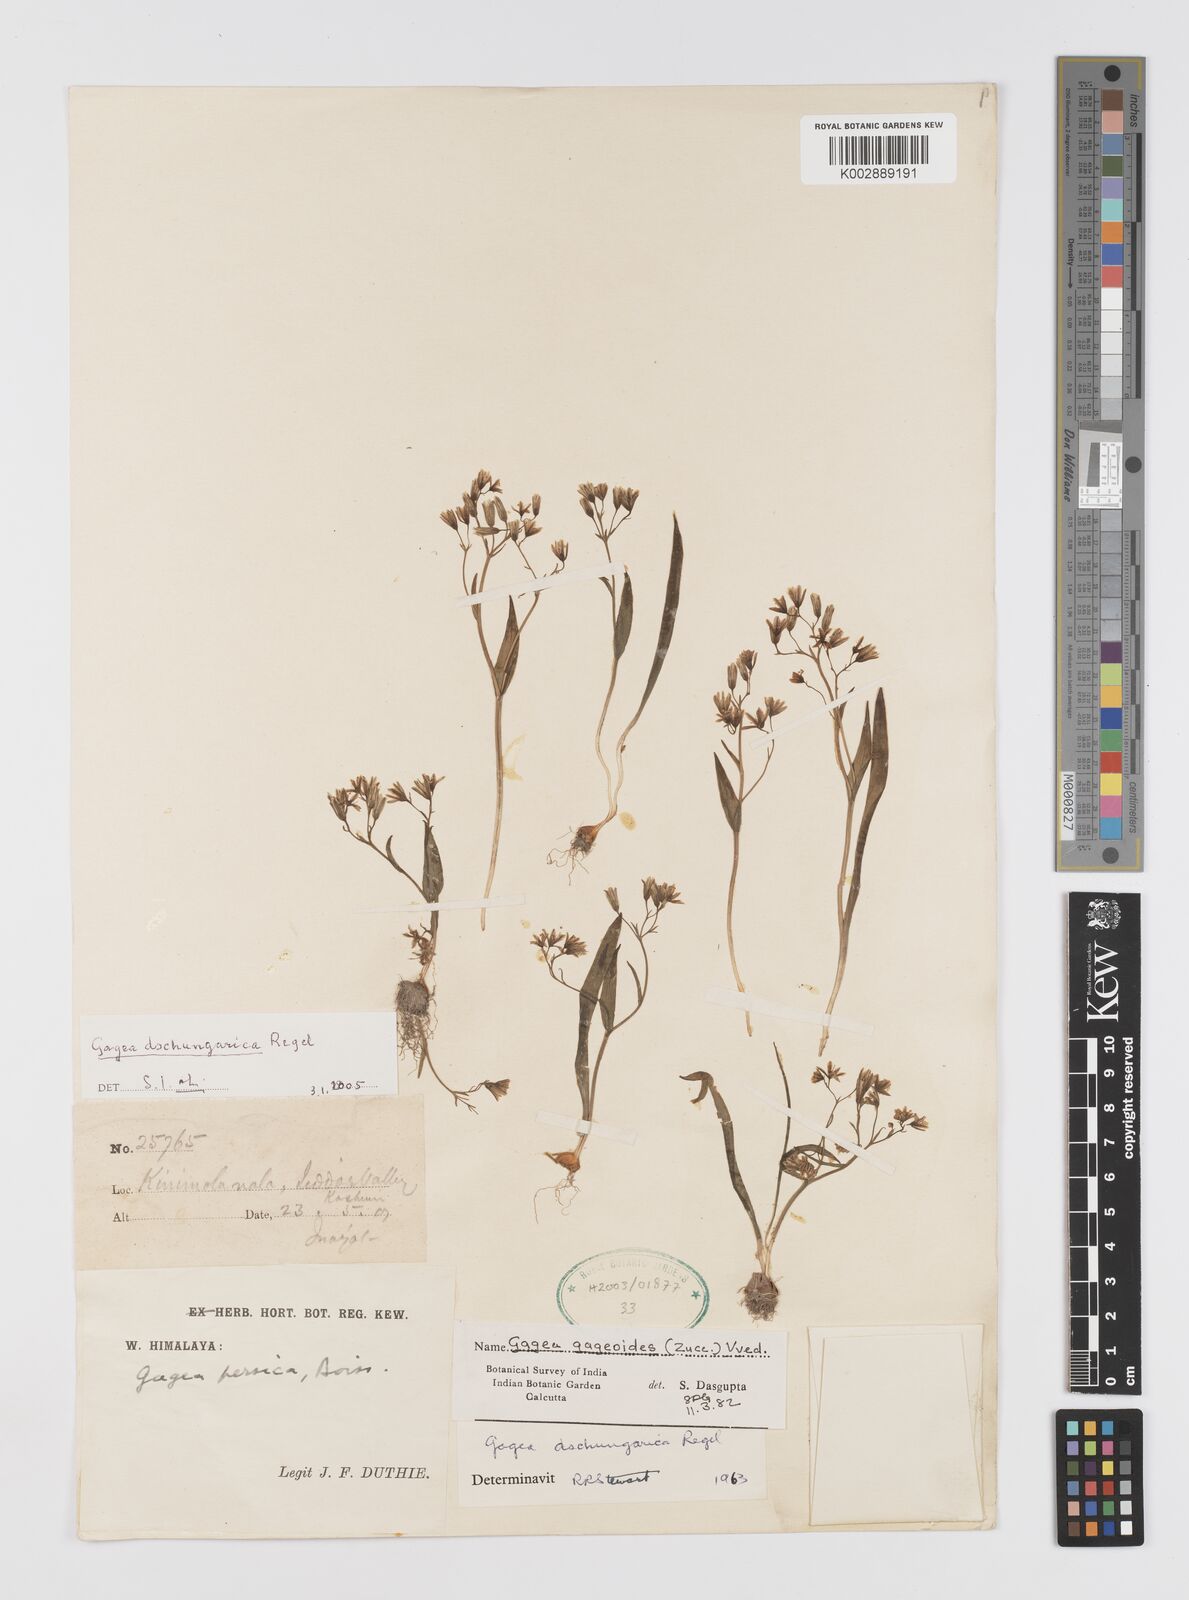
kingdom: Plantae
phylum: Tracheophyta
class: Liliopsida
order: Liliales
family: Liliaceae
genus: Gagea
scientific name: Gagea dschungarica
